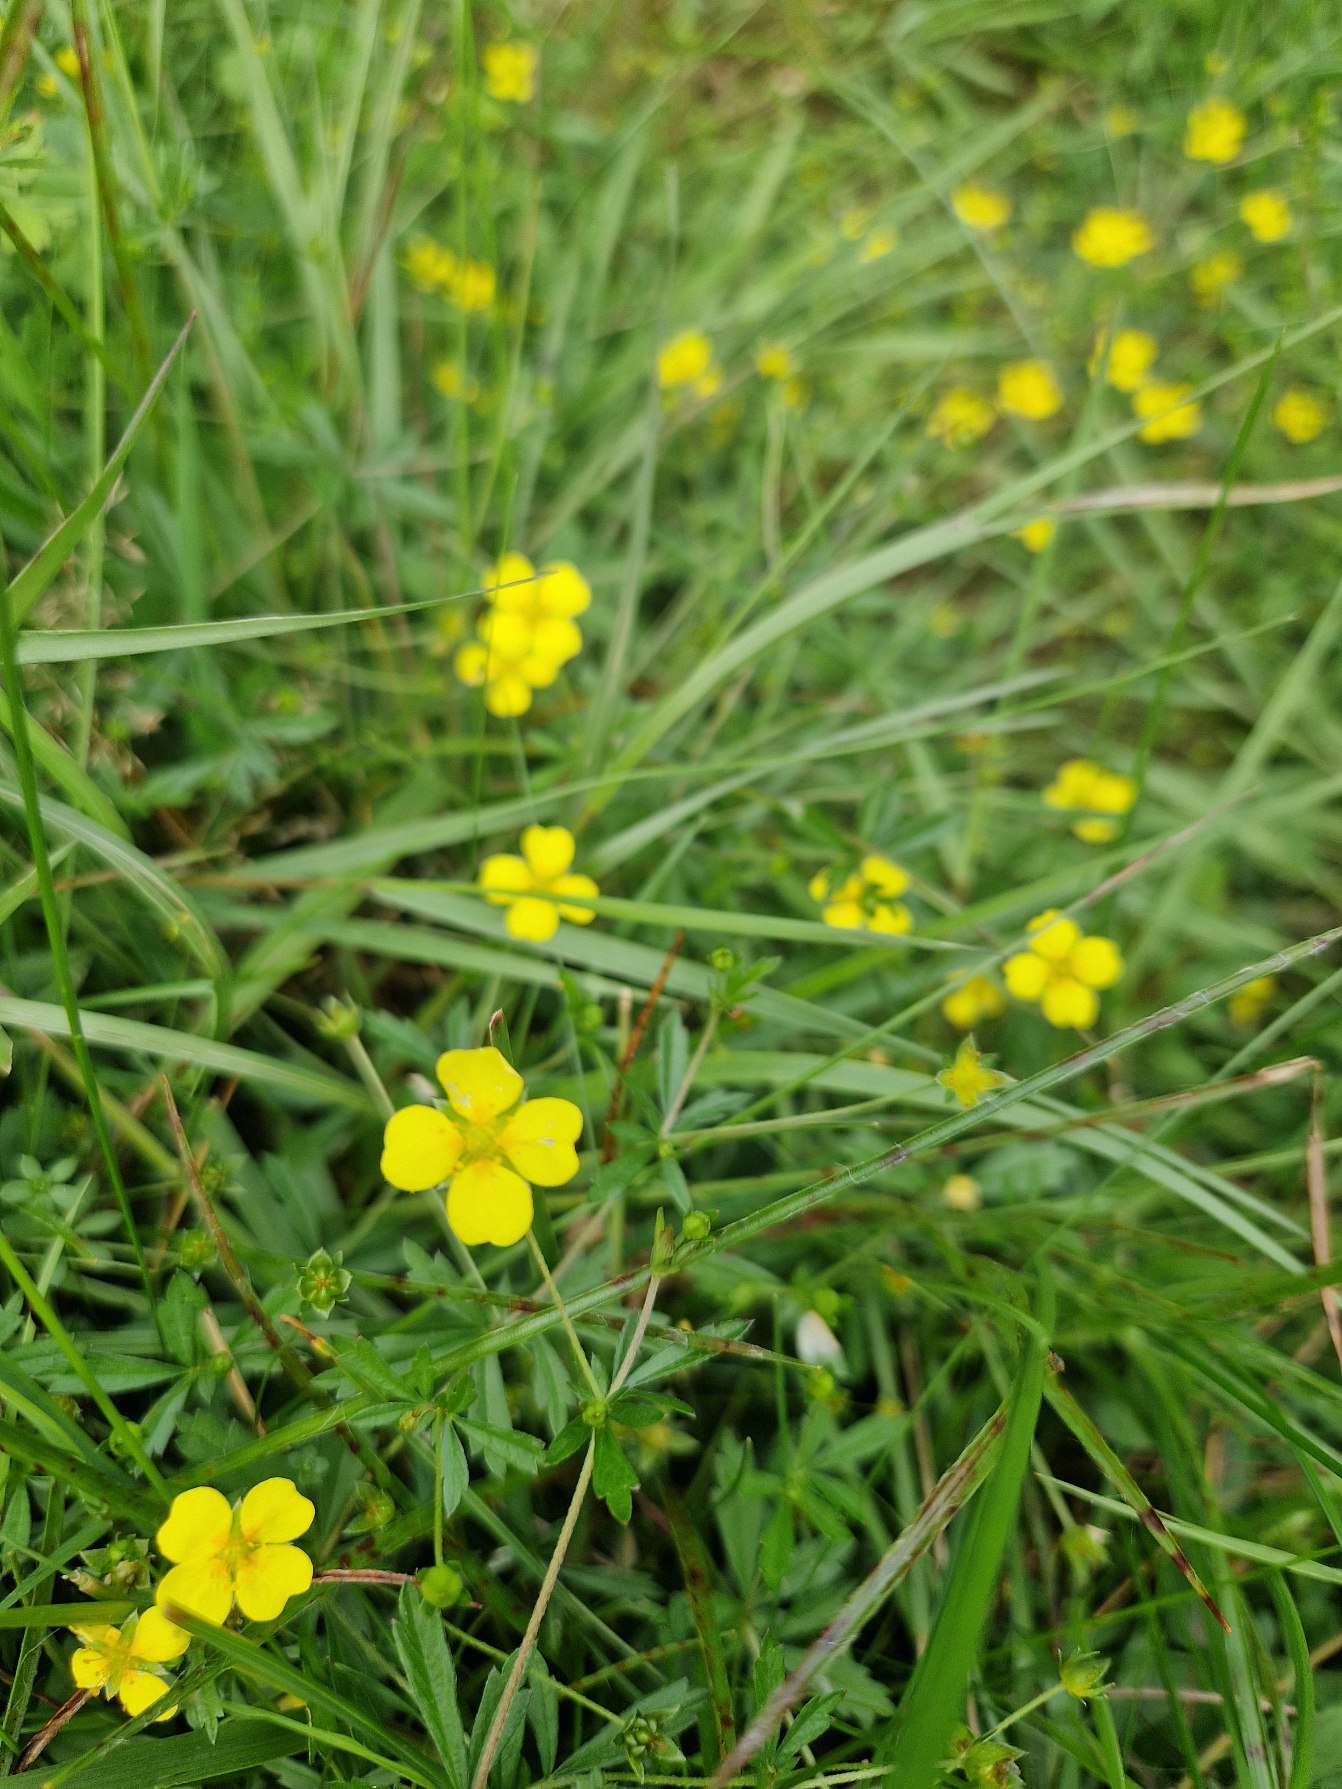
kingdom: Plantae
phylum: Tracheophyta
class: Magnoliopsida
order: Rosales
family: Rosaceae
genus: Potentilla
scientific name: Potentilla erecta
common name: Tormentil
